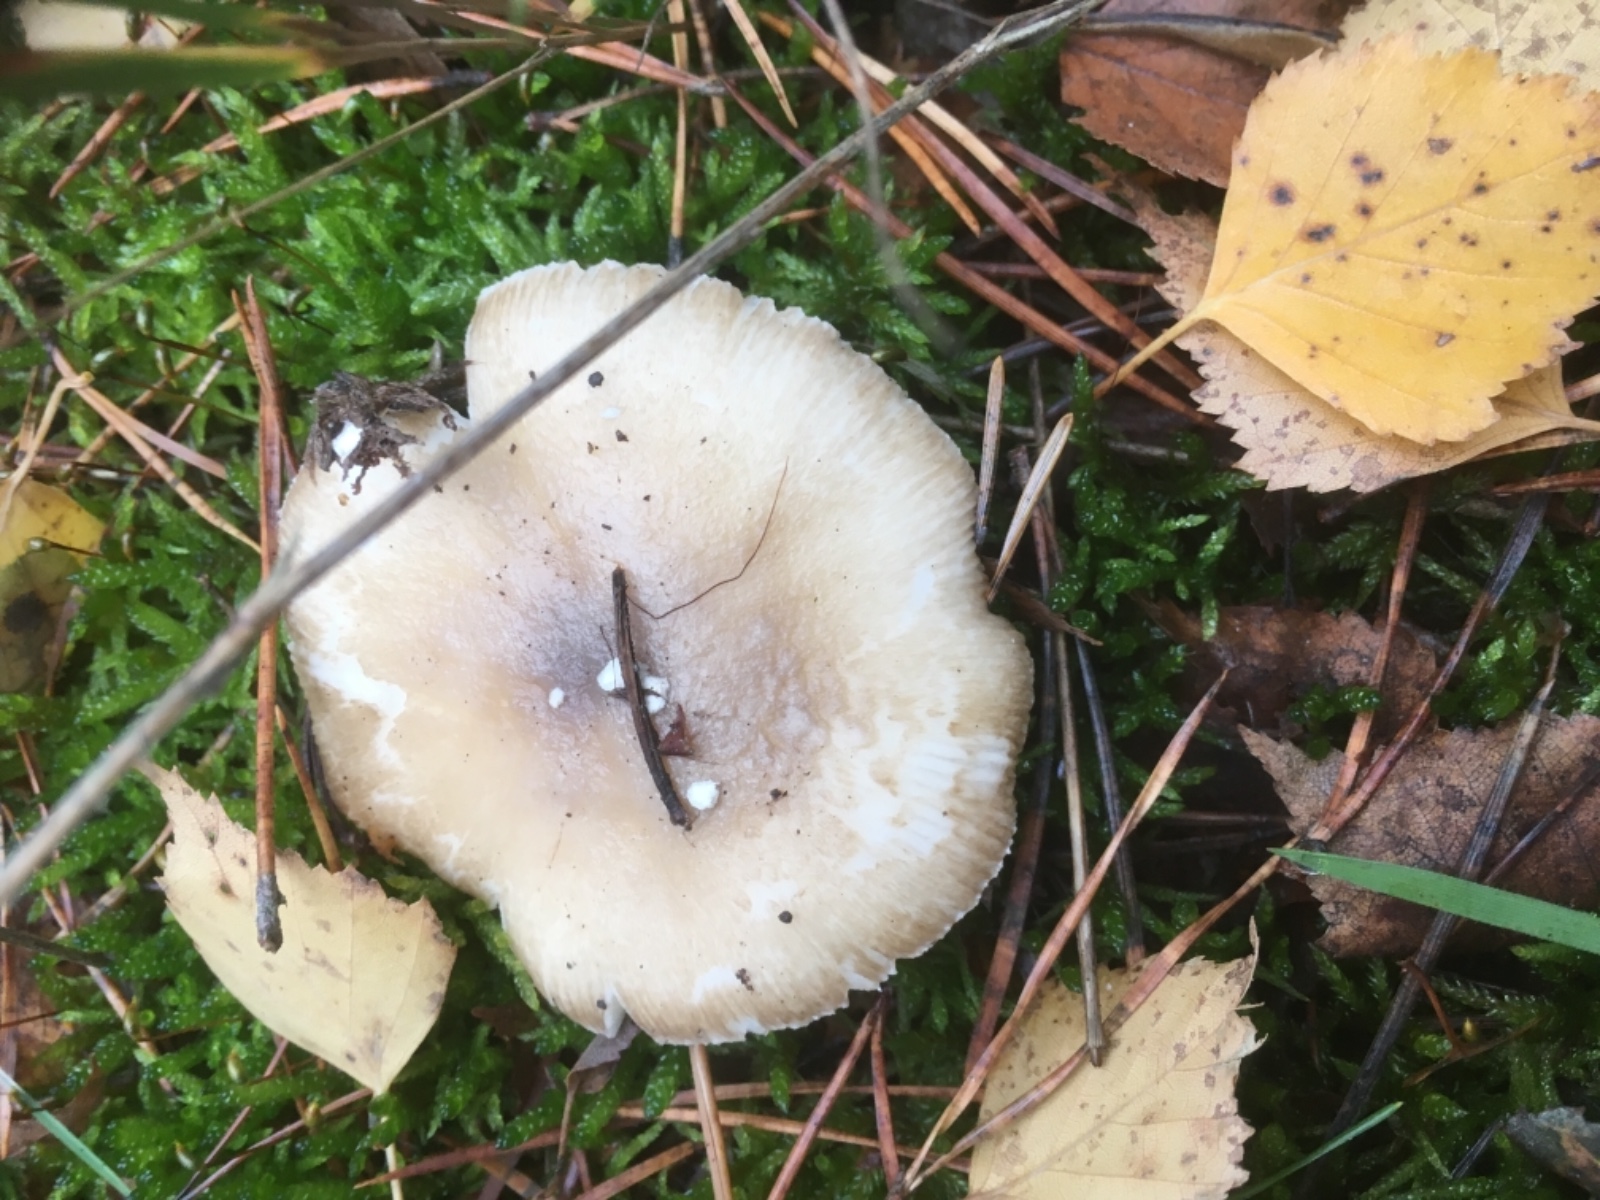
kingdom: Fungi
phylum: Basidiomycota
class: Agaricomycetes
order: Agaricales
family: Amanitaceae
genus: Amanita
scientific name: Amanita
